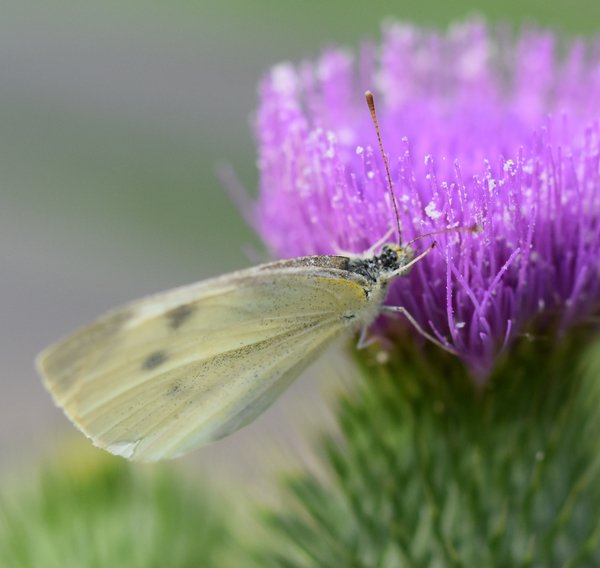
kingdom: Animalia
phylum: Arthropoda
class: Insecta
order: Lepidoptera
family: Pieridae
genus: Pieris
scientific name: Pieris rapae
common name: Cabbage White
